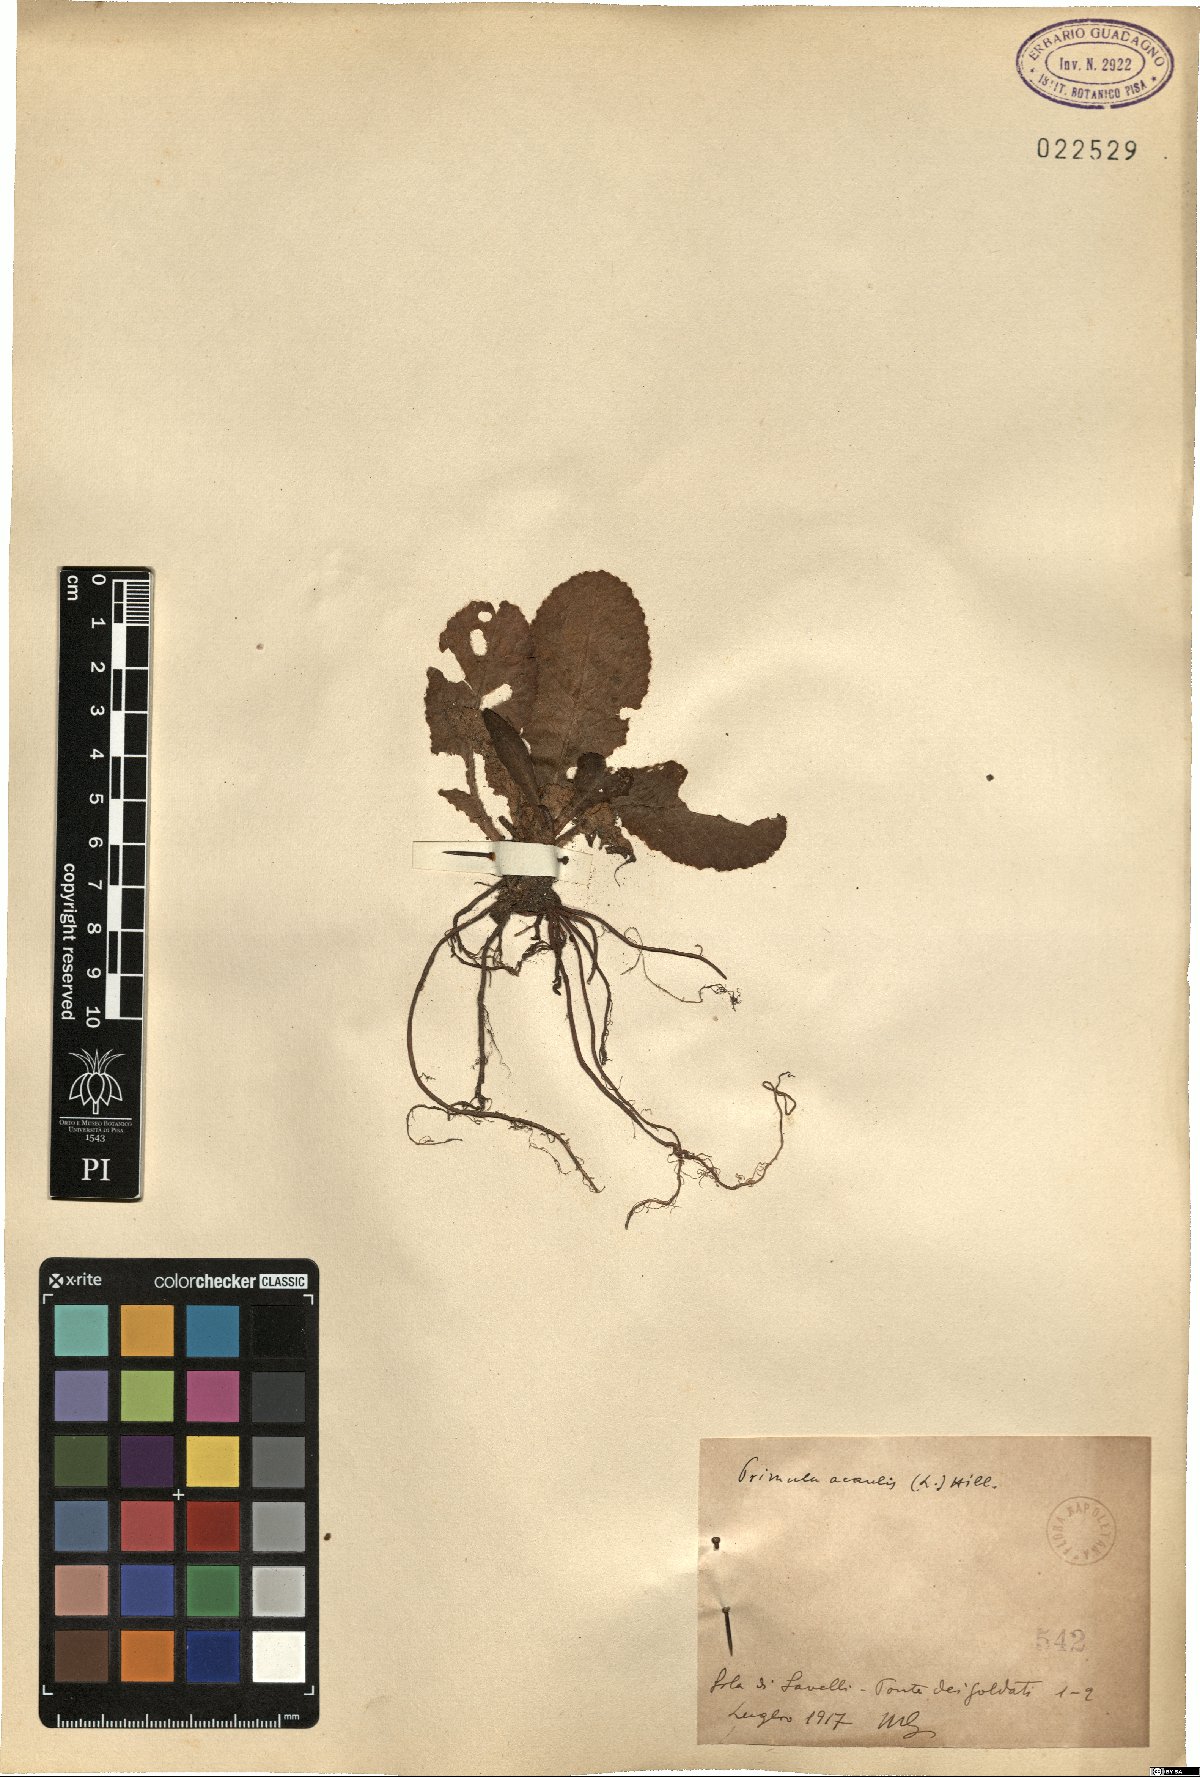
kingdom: Plantae
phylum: Tracheophyta
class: Magnoliopsida
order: Ericales
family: Primulaceae
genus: Primula
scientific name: Primula vulgaris
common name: Primrose
